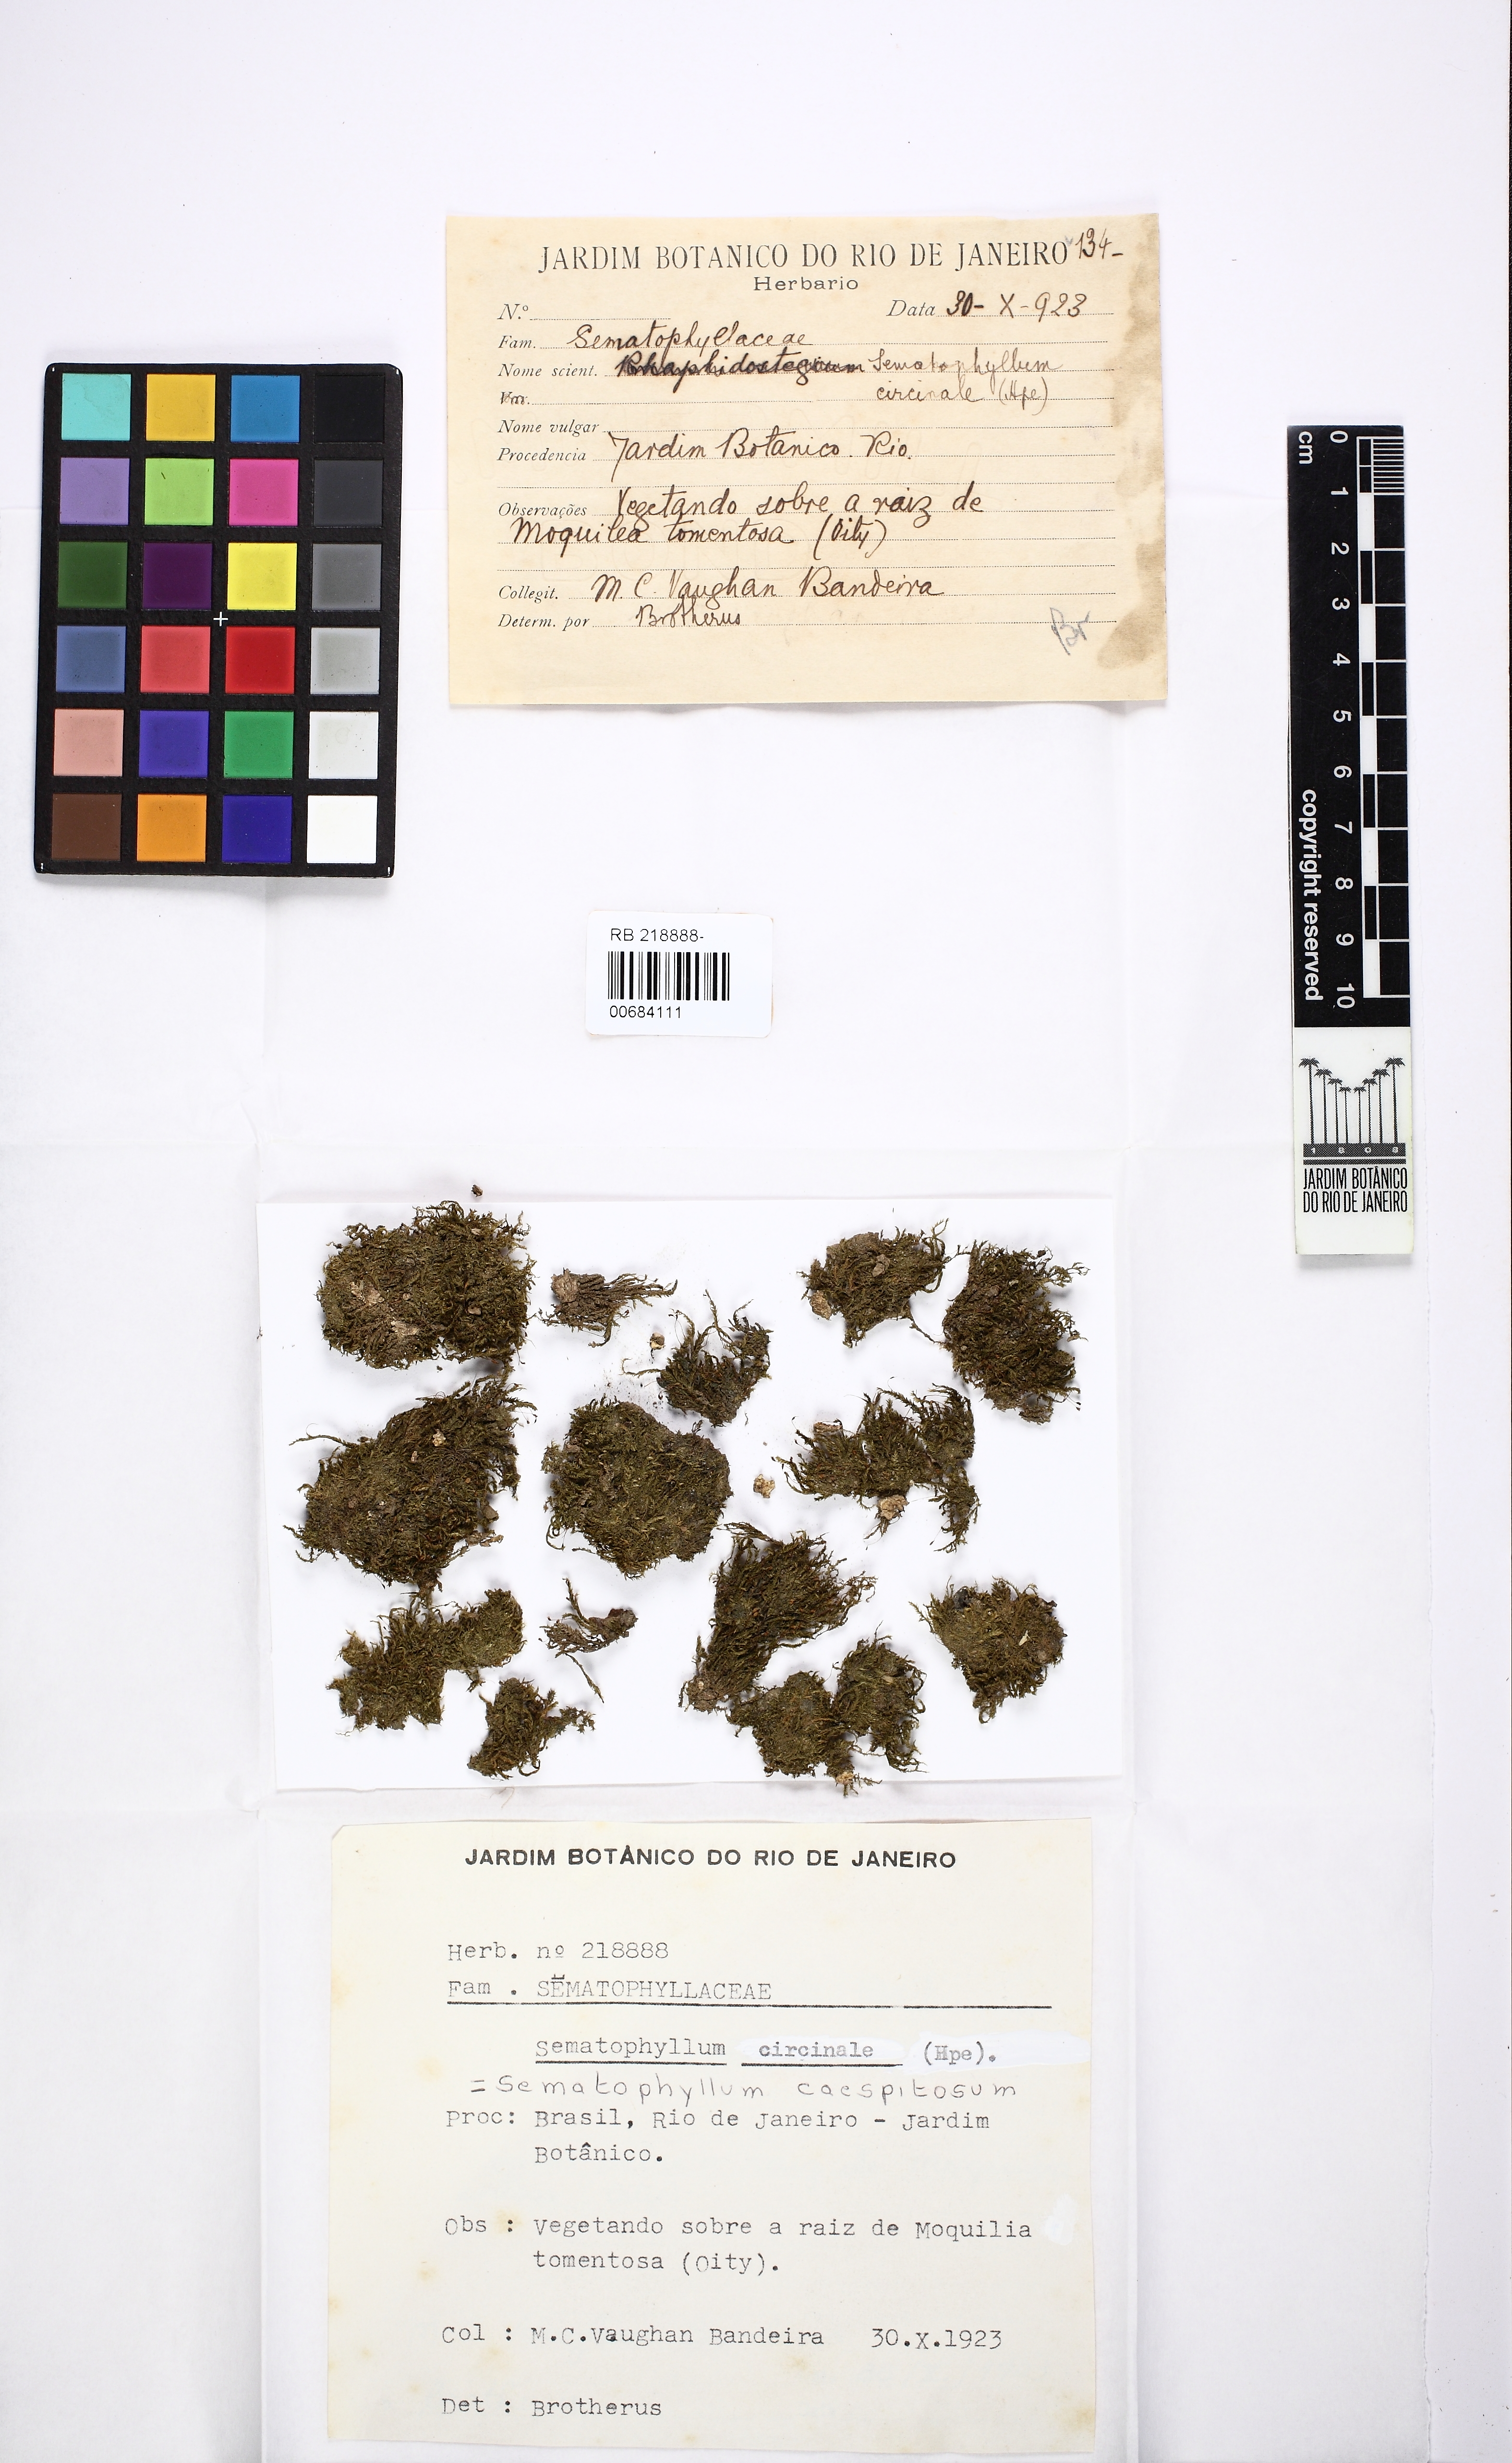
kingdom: Plantae
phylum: Bryophyta
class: Bryopsida
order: Hypnales
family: Sematophyllaceae
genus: Brittonodoxa
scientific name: Brittonodoxa subpinnata
